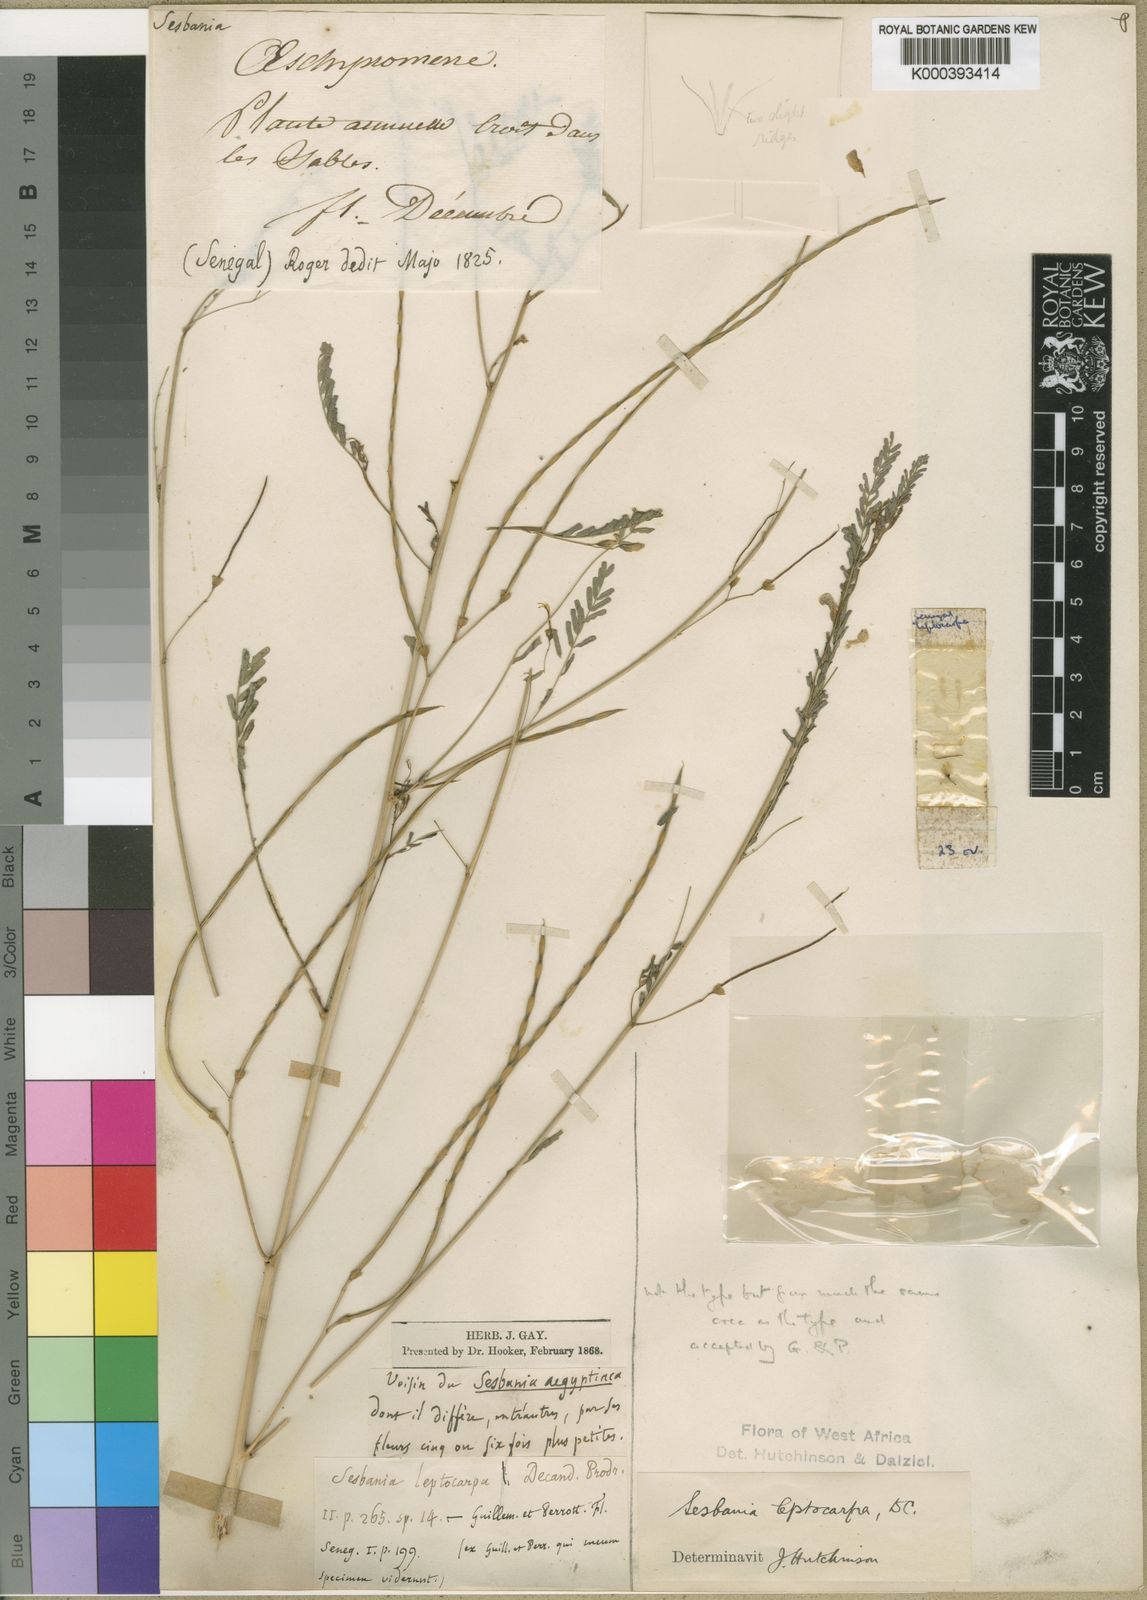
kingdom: Plantae
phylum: Tracheophyta
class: Magnoliopsida
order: Fabales
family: Fabaceae
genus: Sesbania
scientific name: Sesbania leptocarpa
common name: Riverhemp
